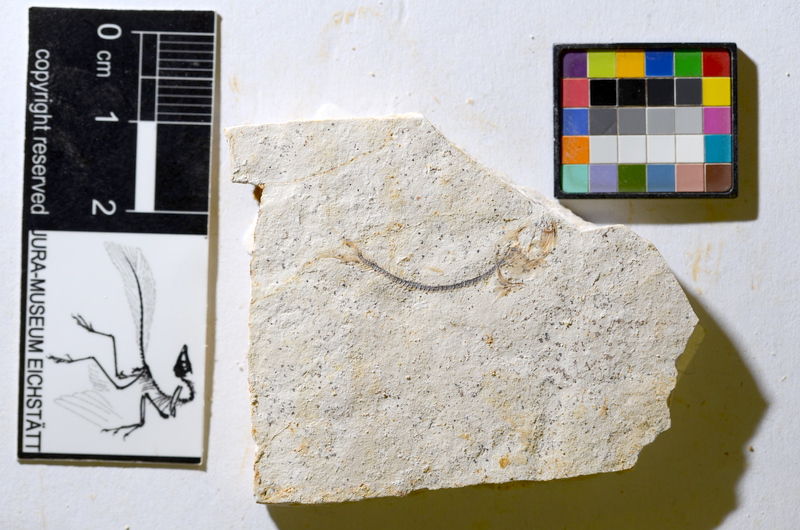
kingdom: Animalia
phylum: Chordata
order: Salmoniformes
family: Orthogonikleithridae
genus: Orthogonikleithrus
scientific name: Orthogonikleithrus hoelli
